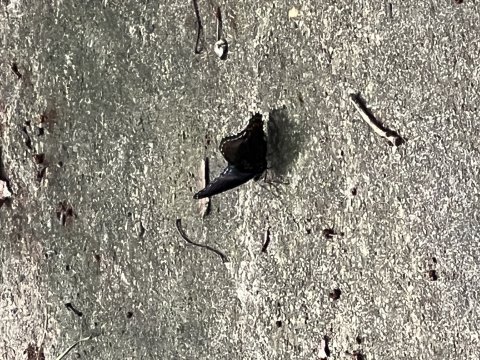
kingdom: Animalia
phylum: Arthropoda
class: Insecta
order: Lepidoptera
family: Nymphalidae
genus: Limenitis
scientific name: Limenitis arthemis
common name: Red-spotted Admiral
